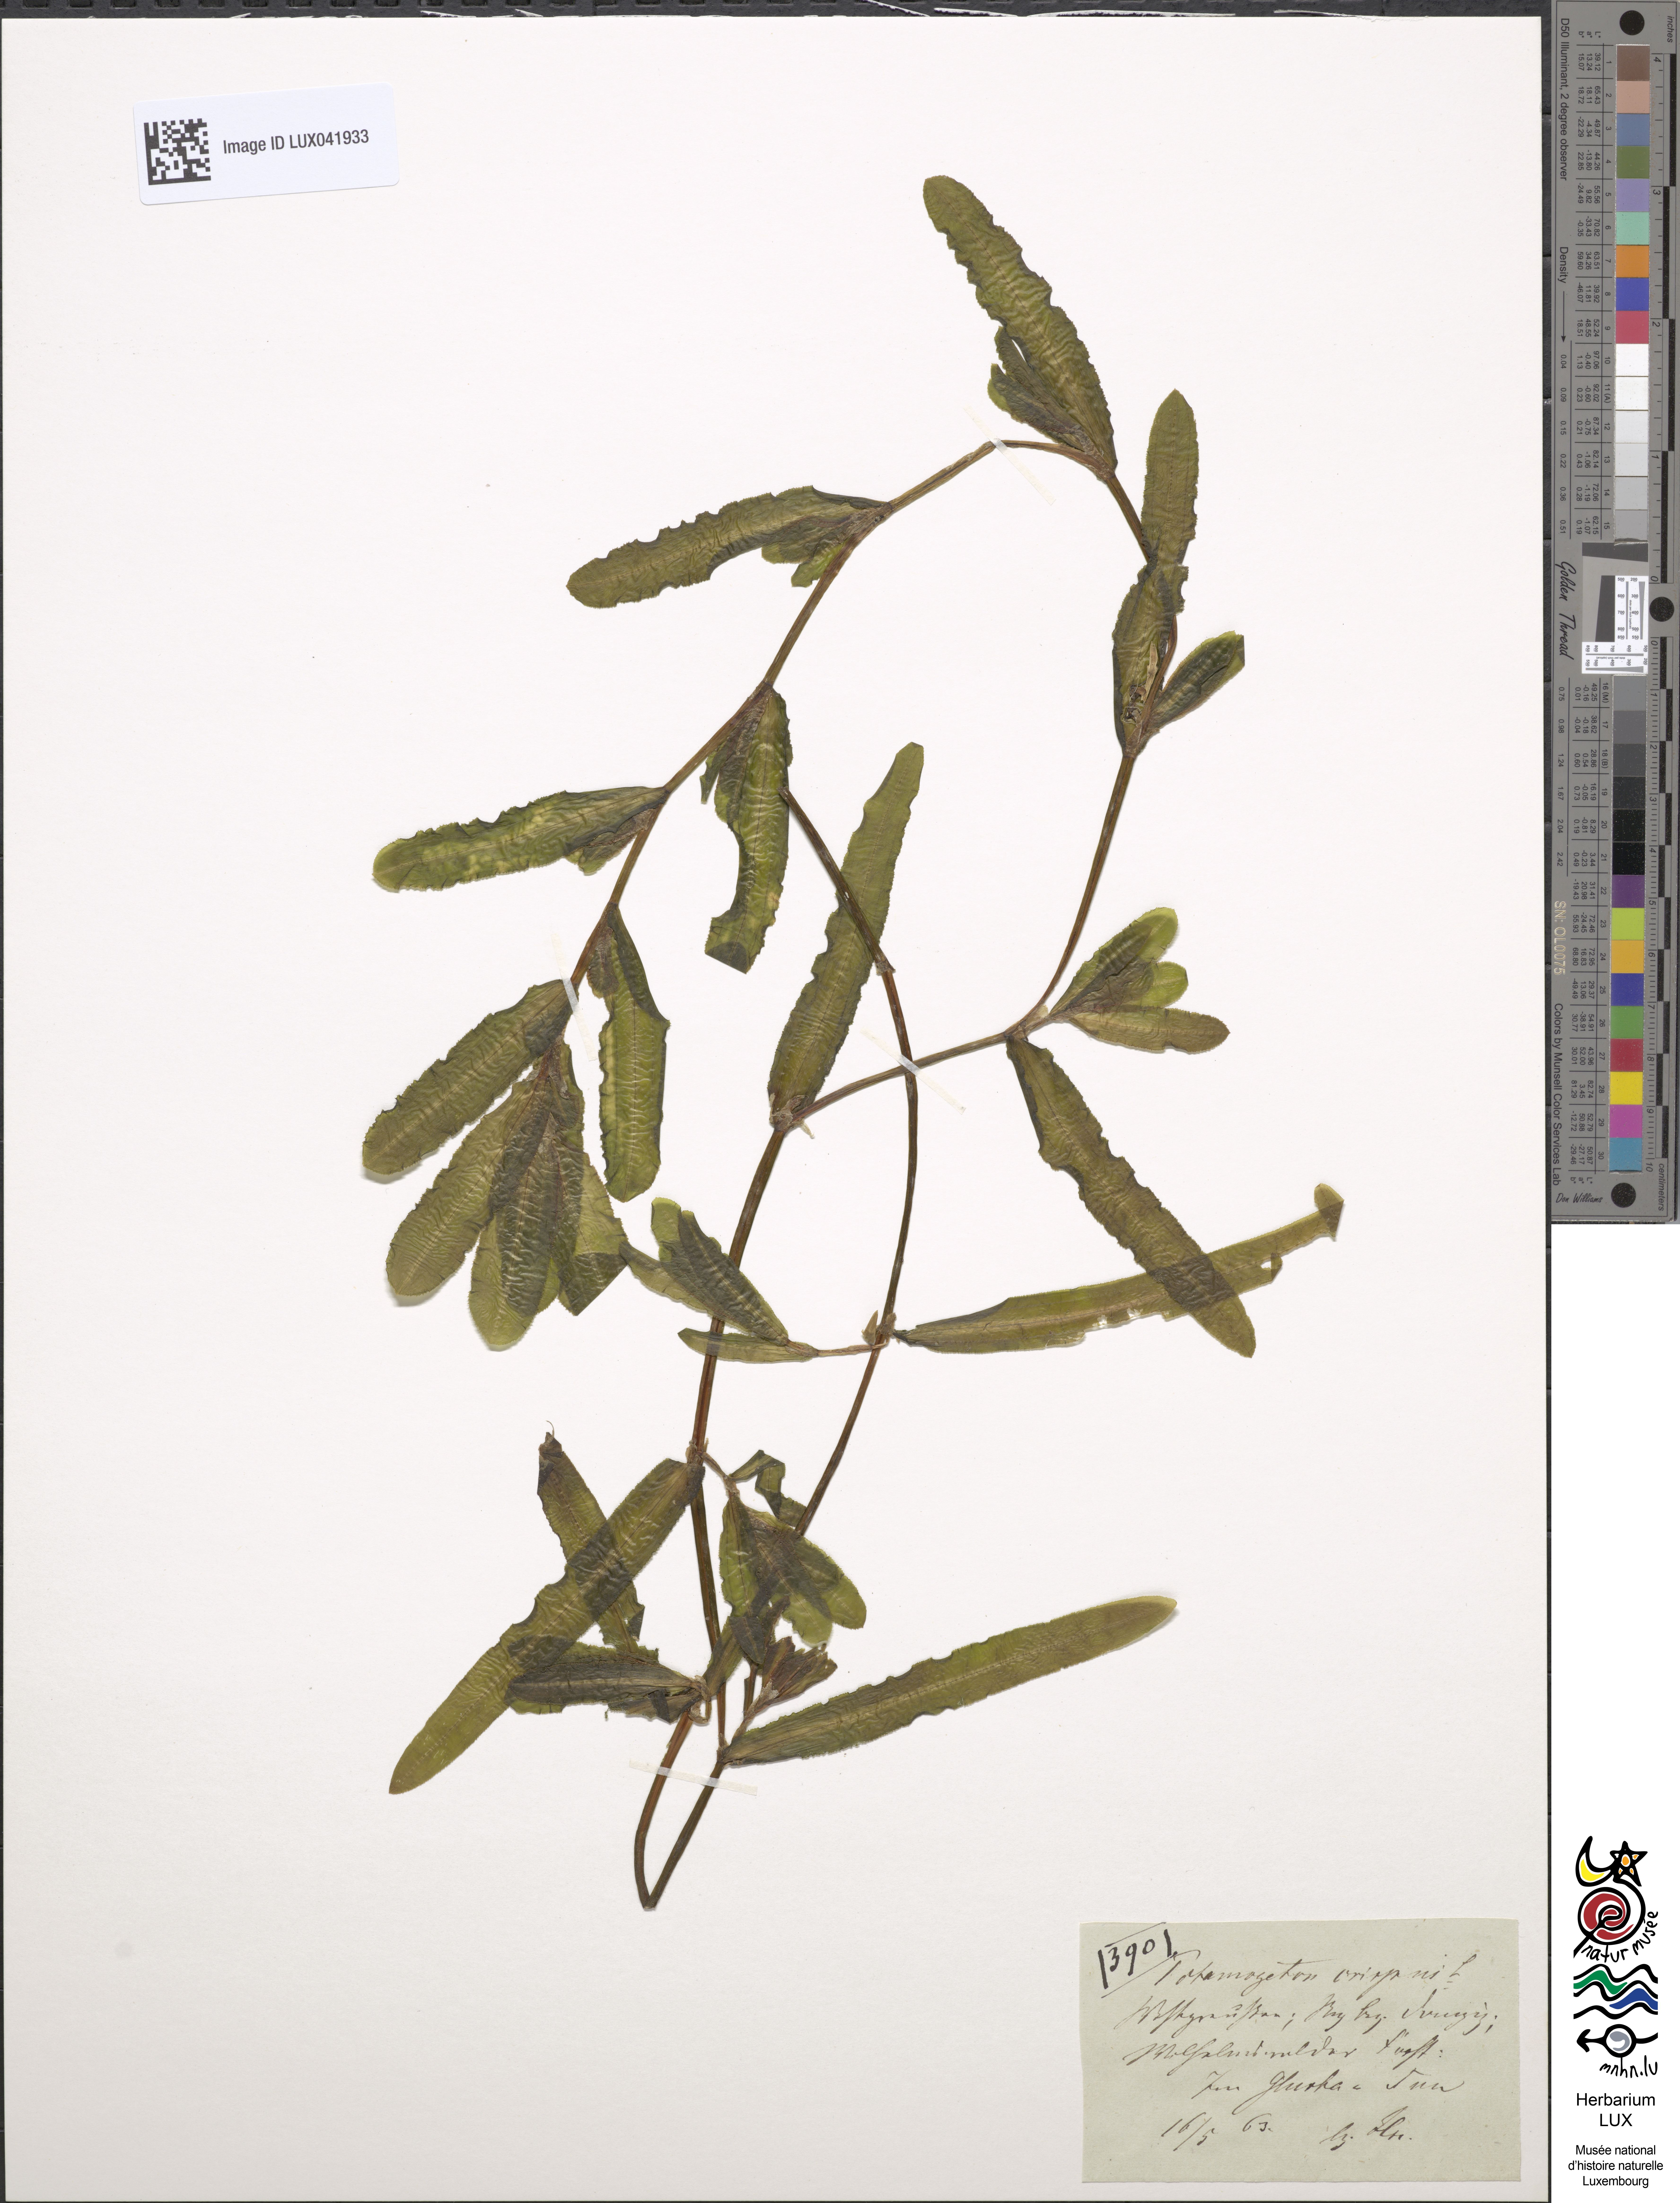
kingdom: Plantae
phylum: Tracheophyta
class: Liliopsida
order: Alismatales
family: Potamogetonaceae
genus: Potamogeton
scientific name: Potamogeton crispus
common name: Curled pondweed
